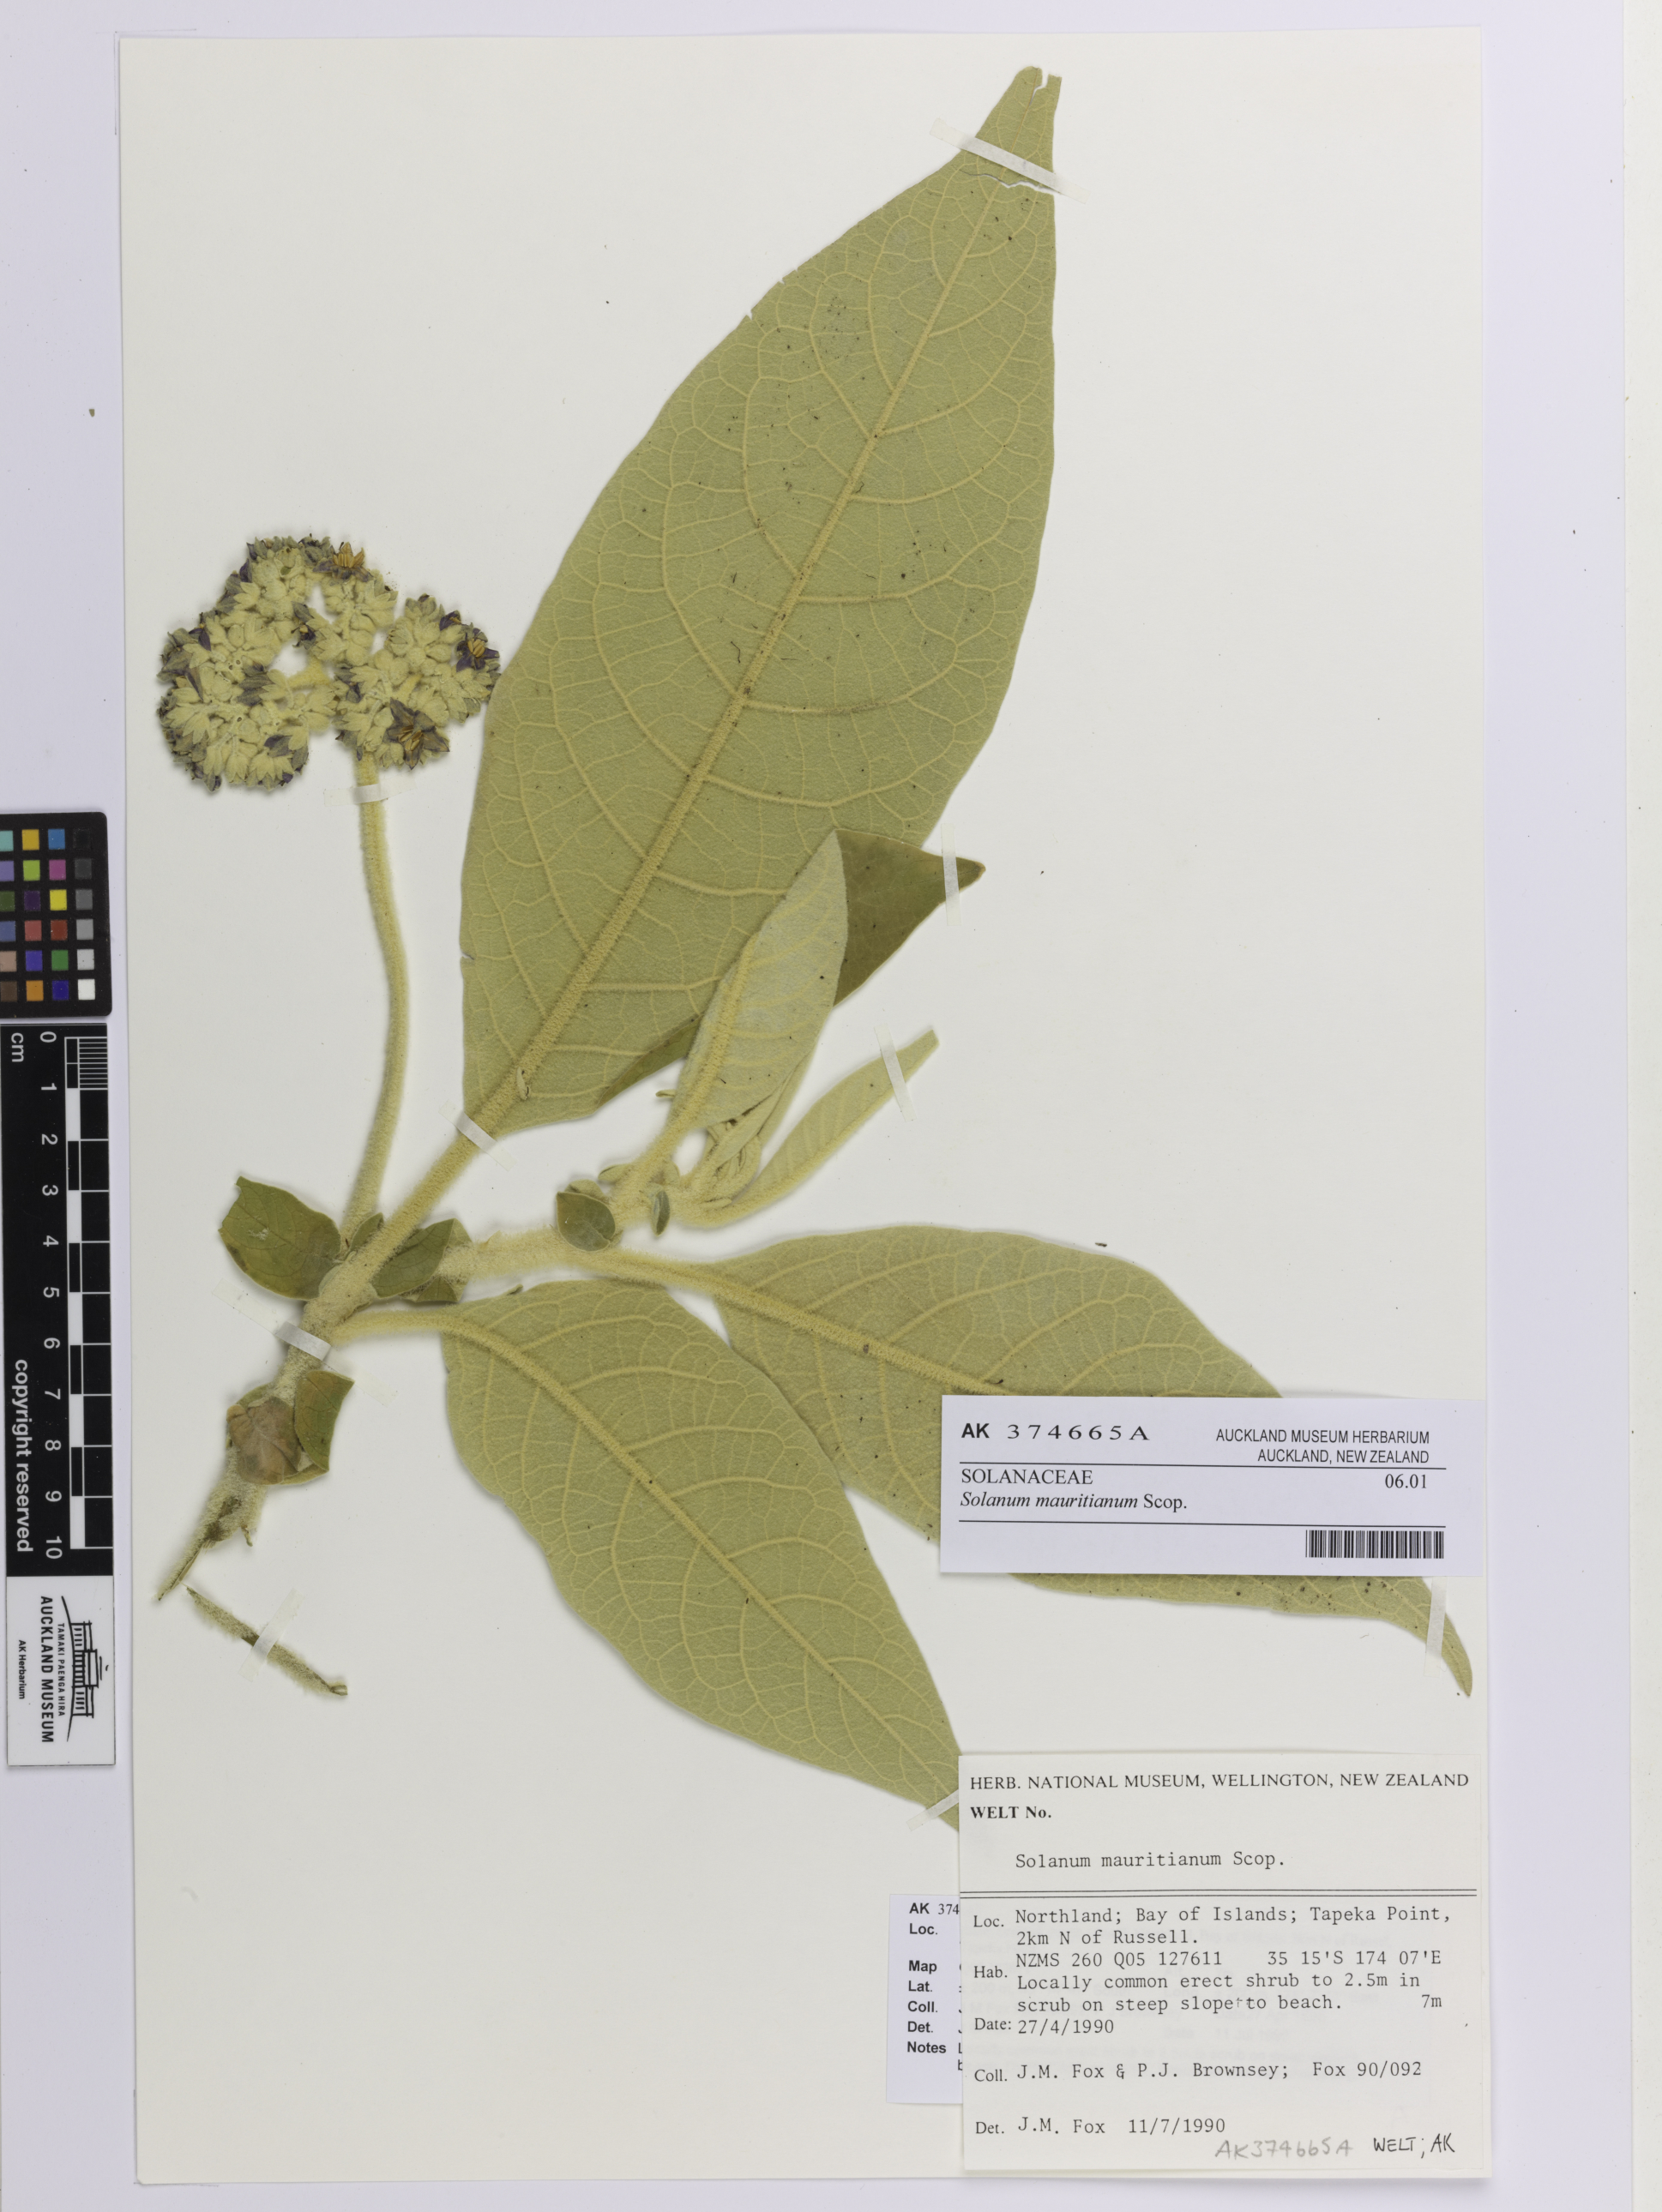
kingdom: Plantae
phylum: Tracheophyta
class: Magnoliopsida
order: Solanales
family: Solanaceae
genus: Solanum
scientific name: Solanum mauritianum
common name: Earleaf nightshade
